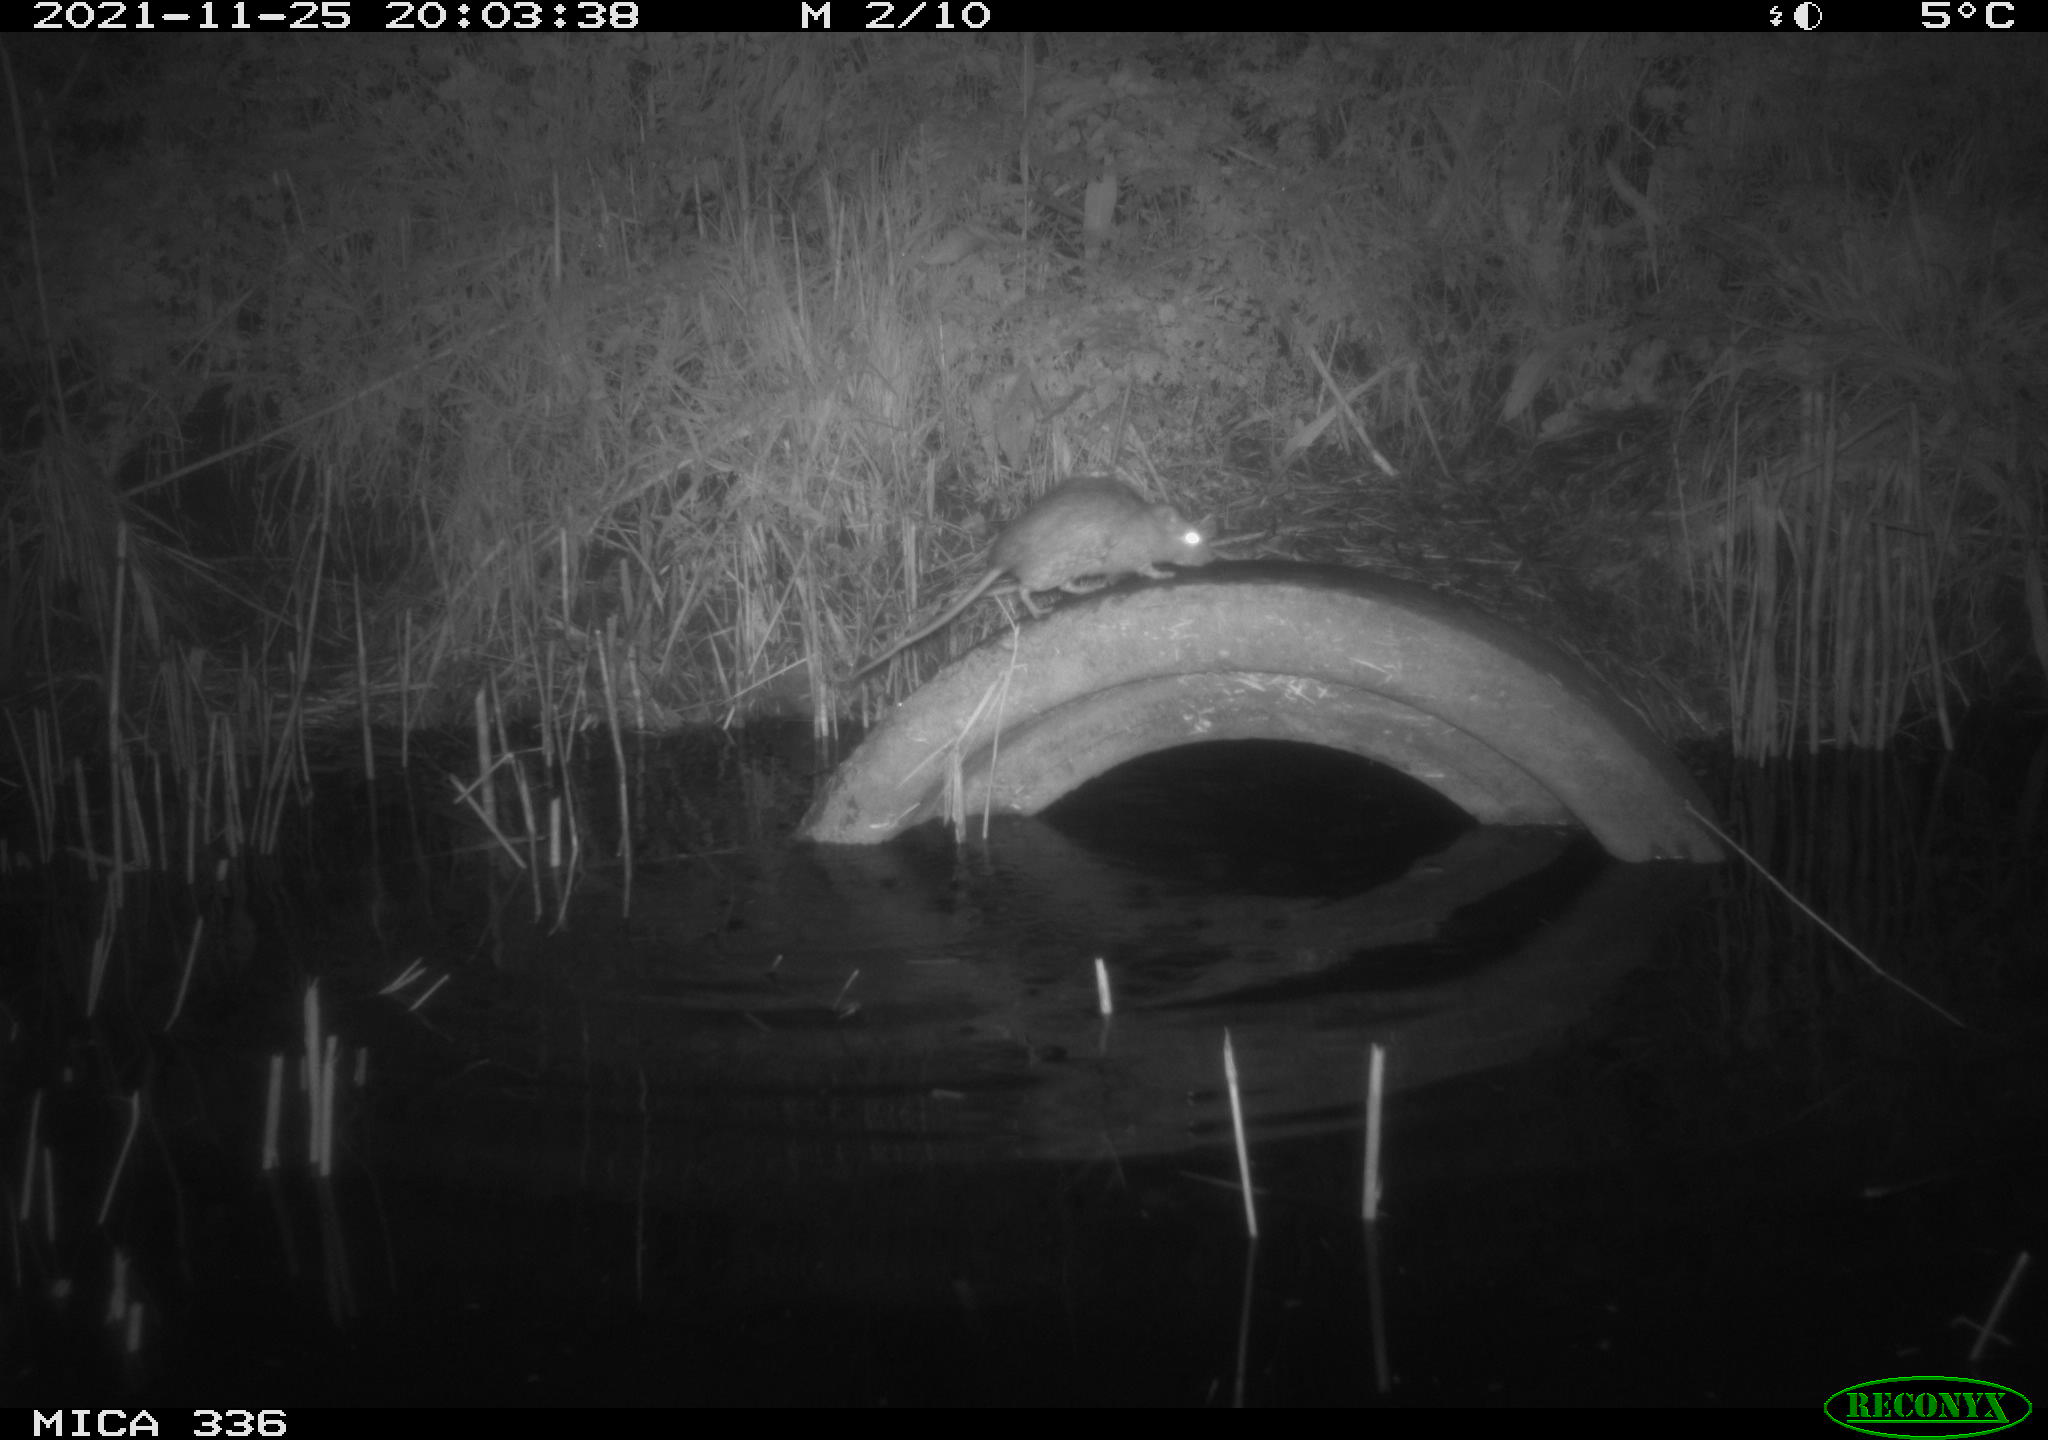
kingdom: Animalia
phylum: Chordata
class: Mammalia
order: Rodentia
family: Muridae
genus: Rattus
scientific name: Rattus norvegicus
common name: Brown rat
